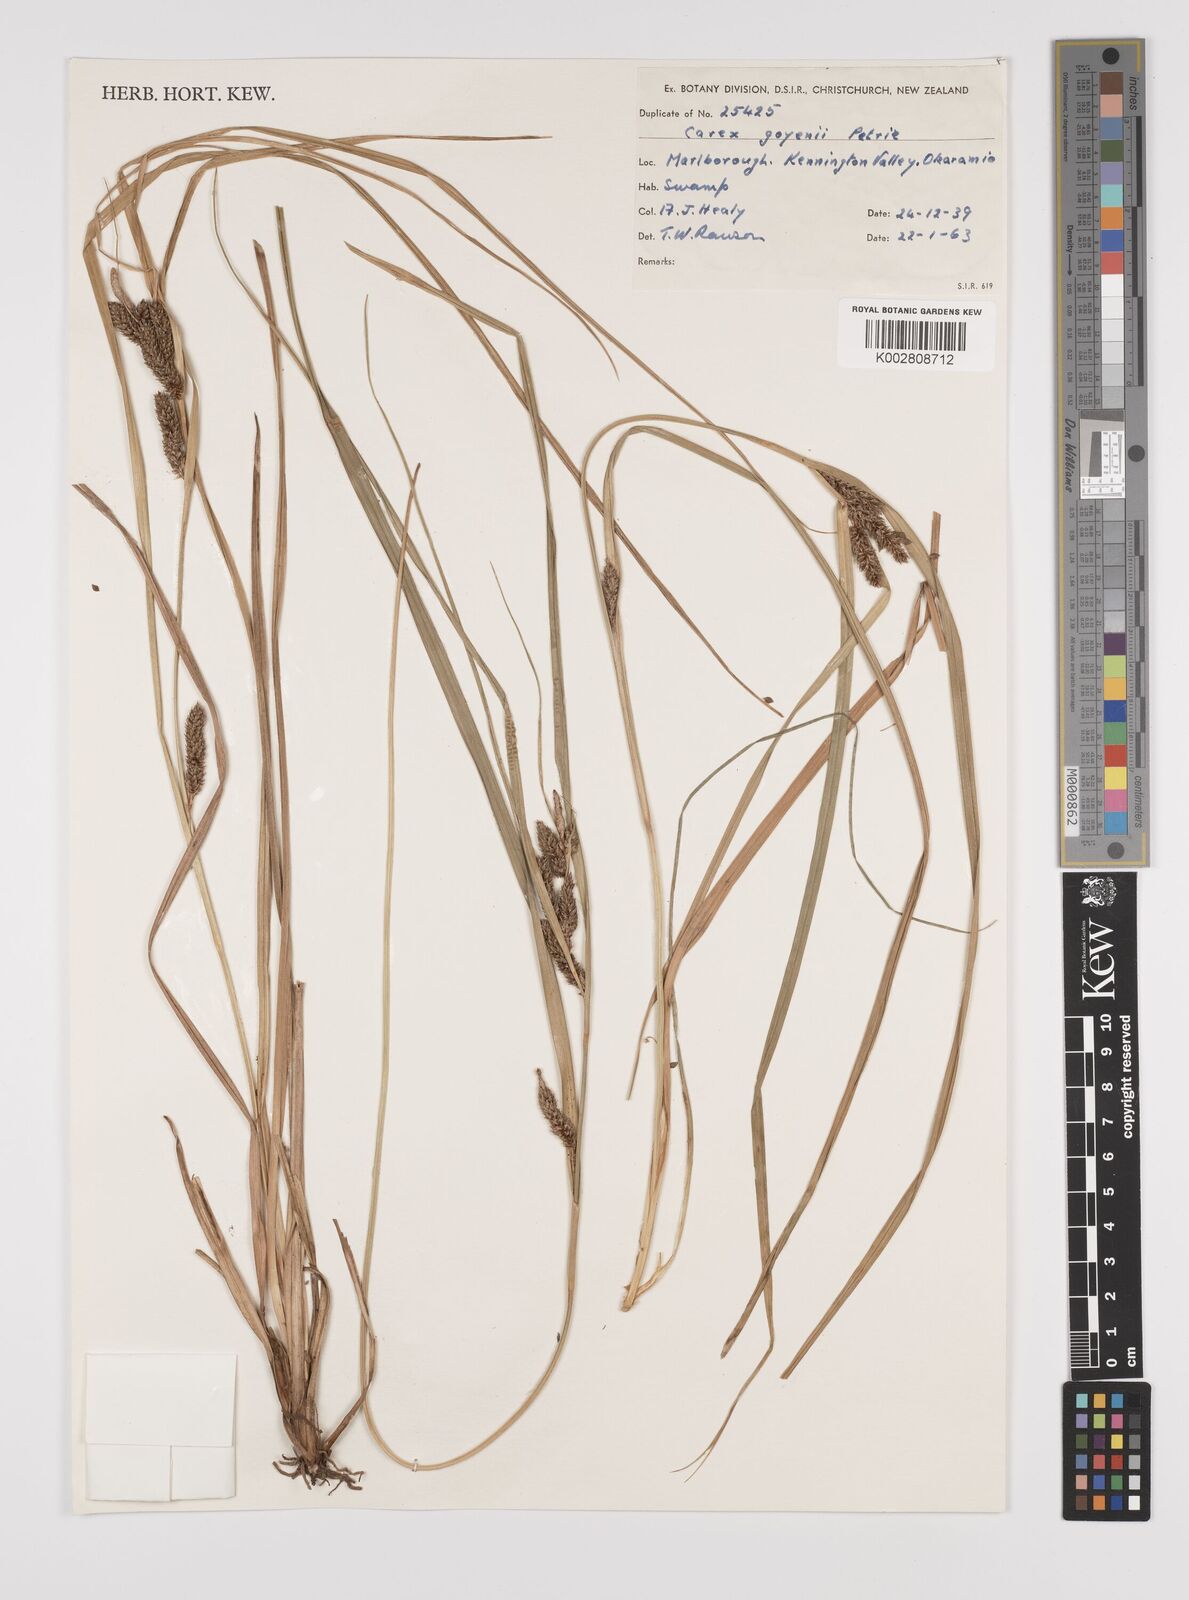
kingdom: Plantae
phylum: Tracheophyta
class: Liliopsida
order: Poales
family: Cyperaceae
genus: Carex
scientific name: Carex raoulii
